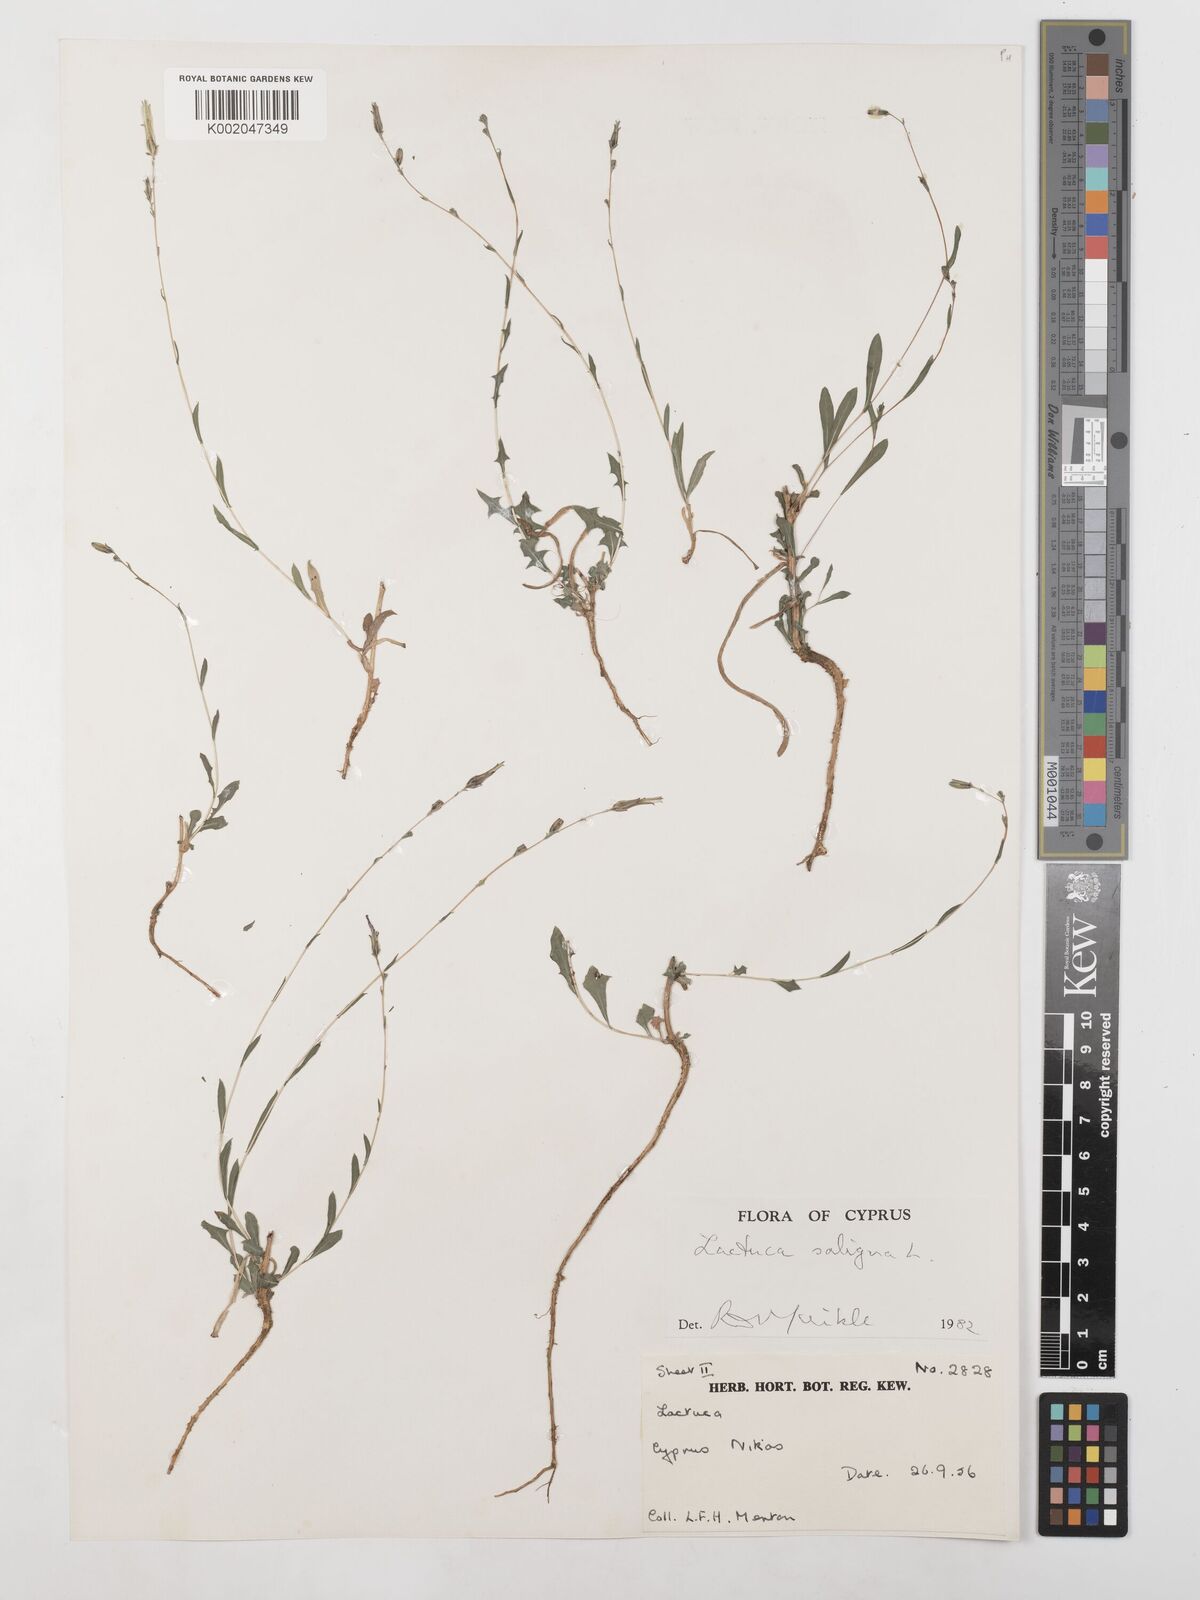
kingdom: Plantae
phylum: Tracheophyta
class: Magnoliopsida
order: Asterales
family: Asteraceae
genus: Lactuca
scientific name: Lactuca saligna
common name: Wild lettuce
